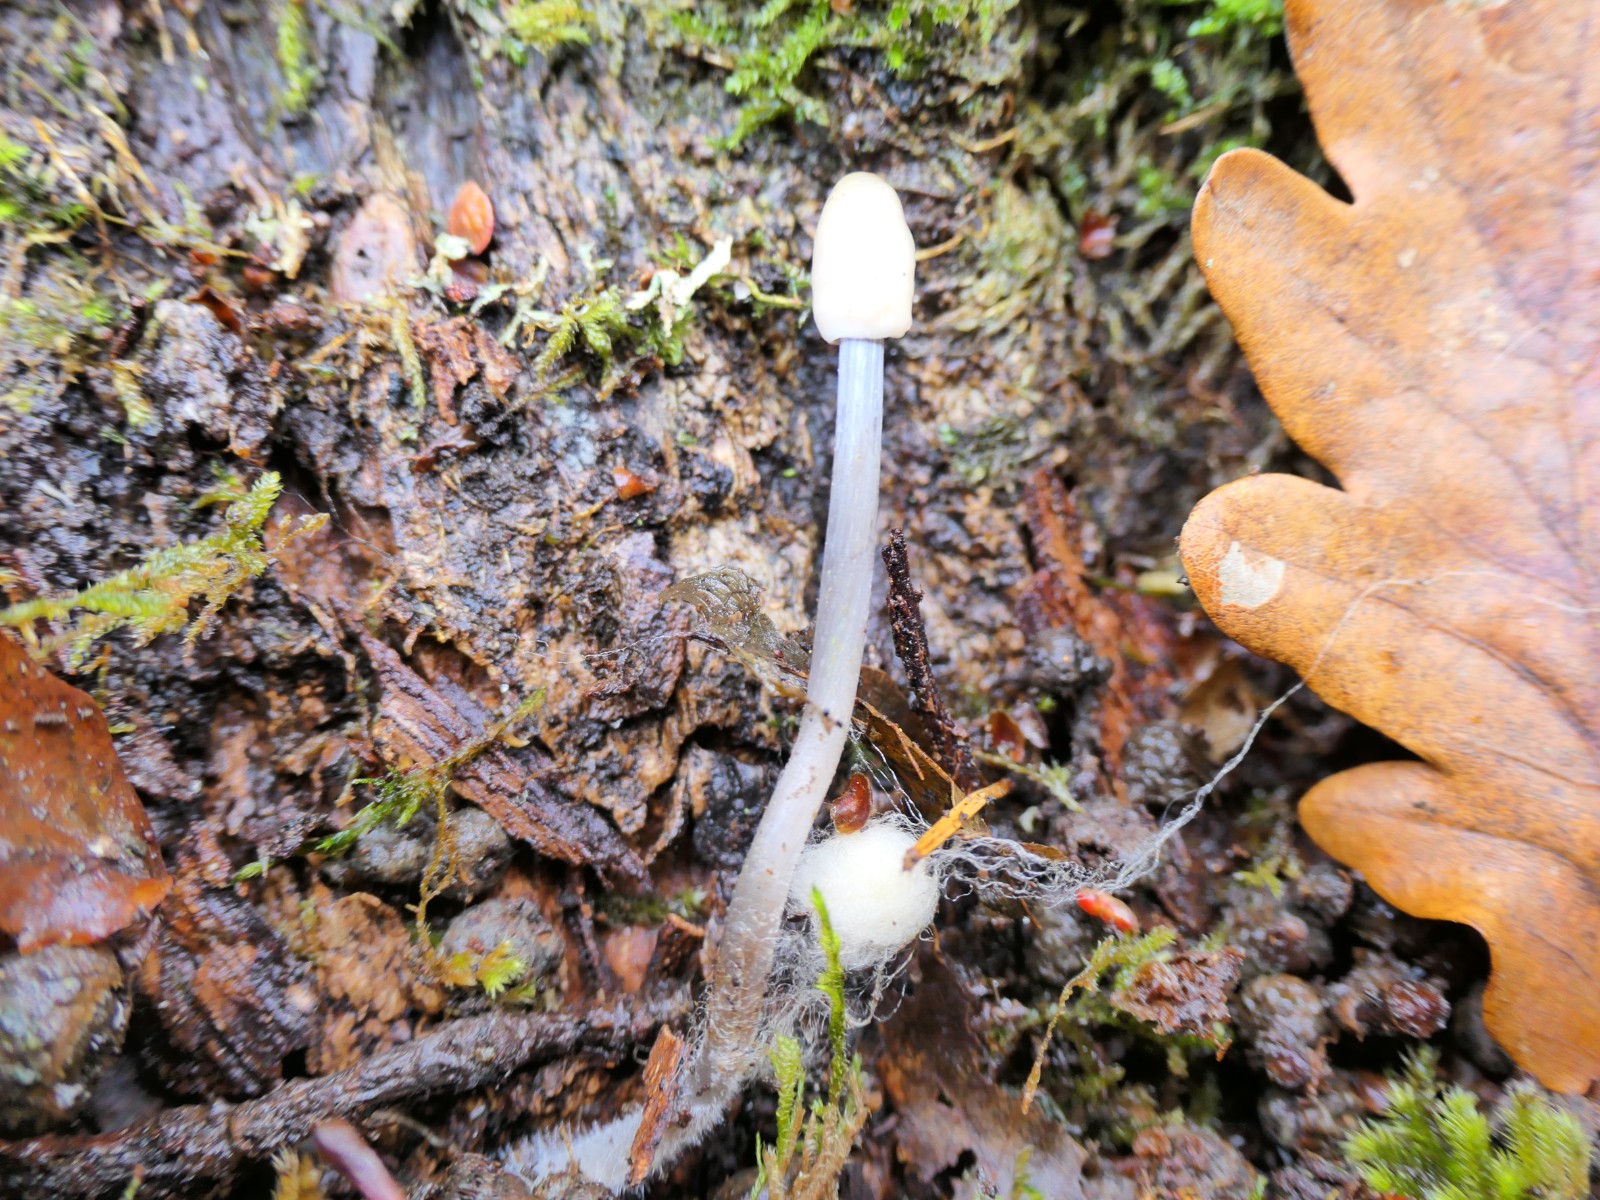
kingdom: Fungi
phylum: Basidiomycota
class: Agaricomycetes
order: Agaricales
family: Mycenaceae
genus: Mycena
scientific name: Mycena
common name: huesvamp
